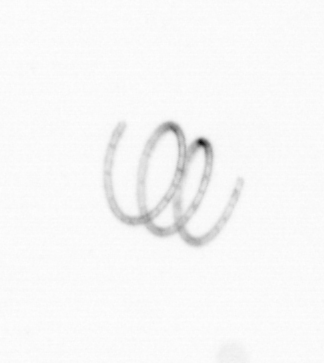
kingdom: Chromista
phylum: Ochrophyta
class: Bacillariophyceae
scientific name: Bacillariophyceae
